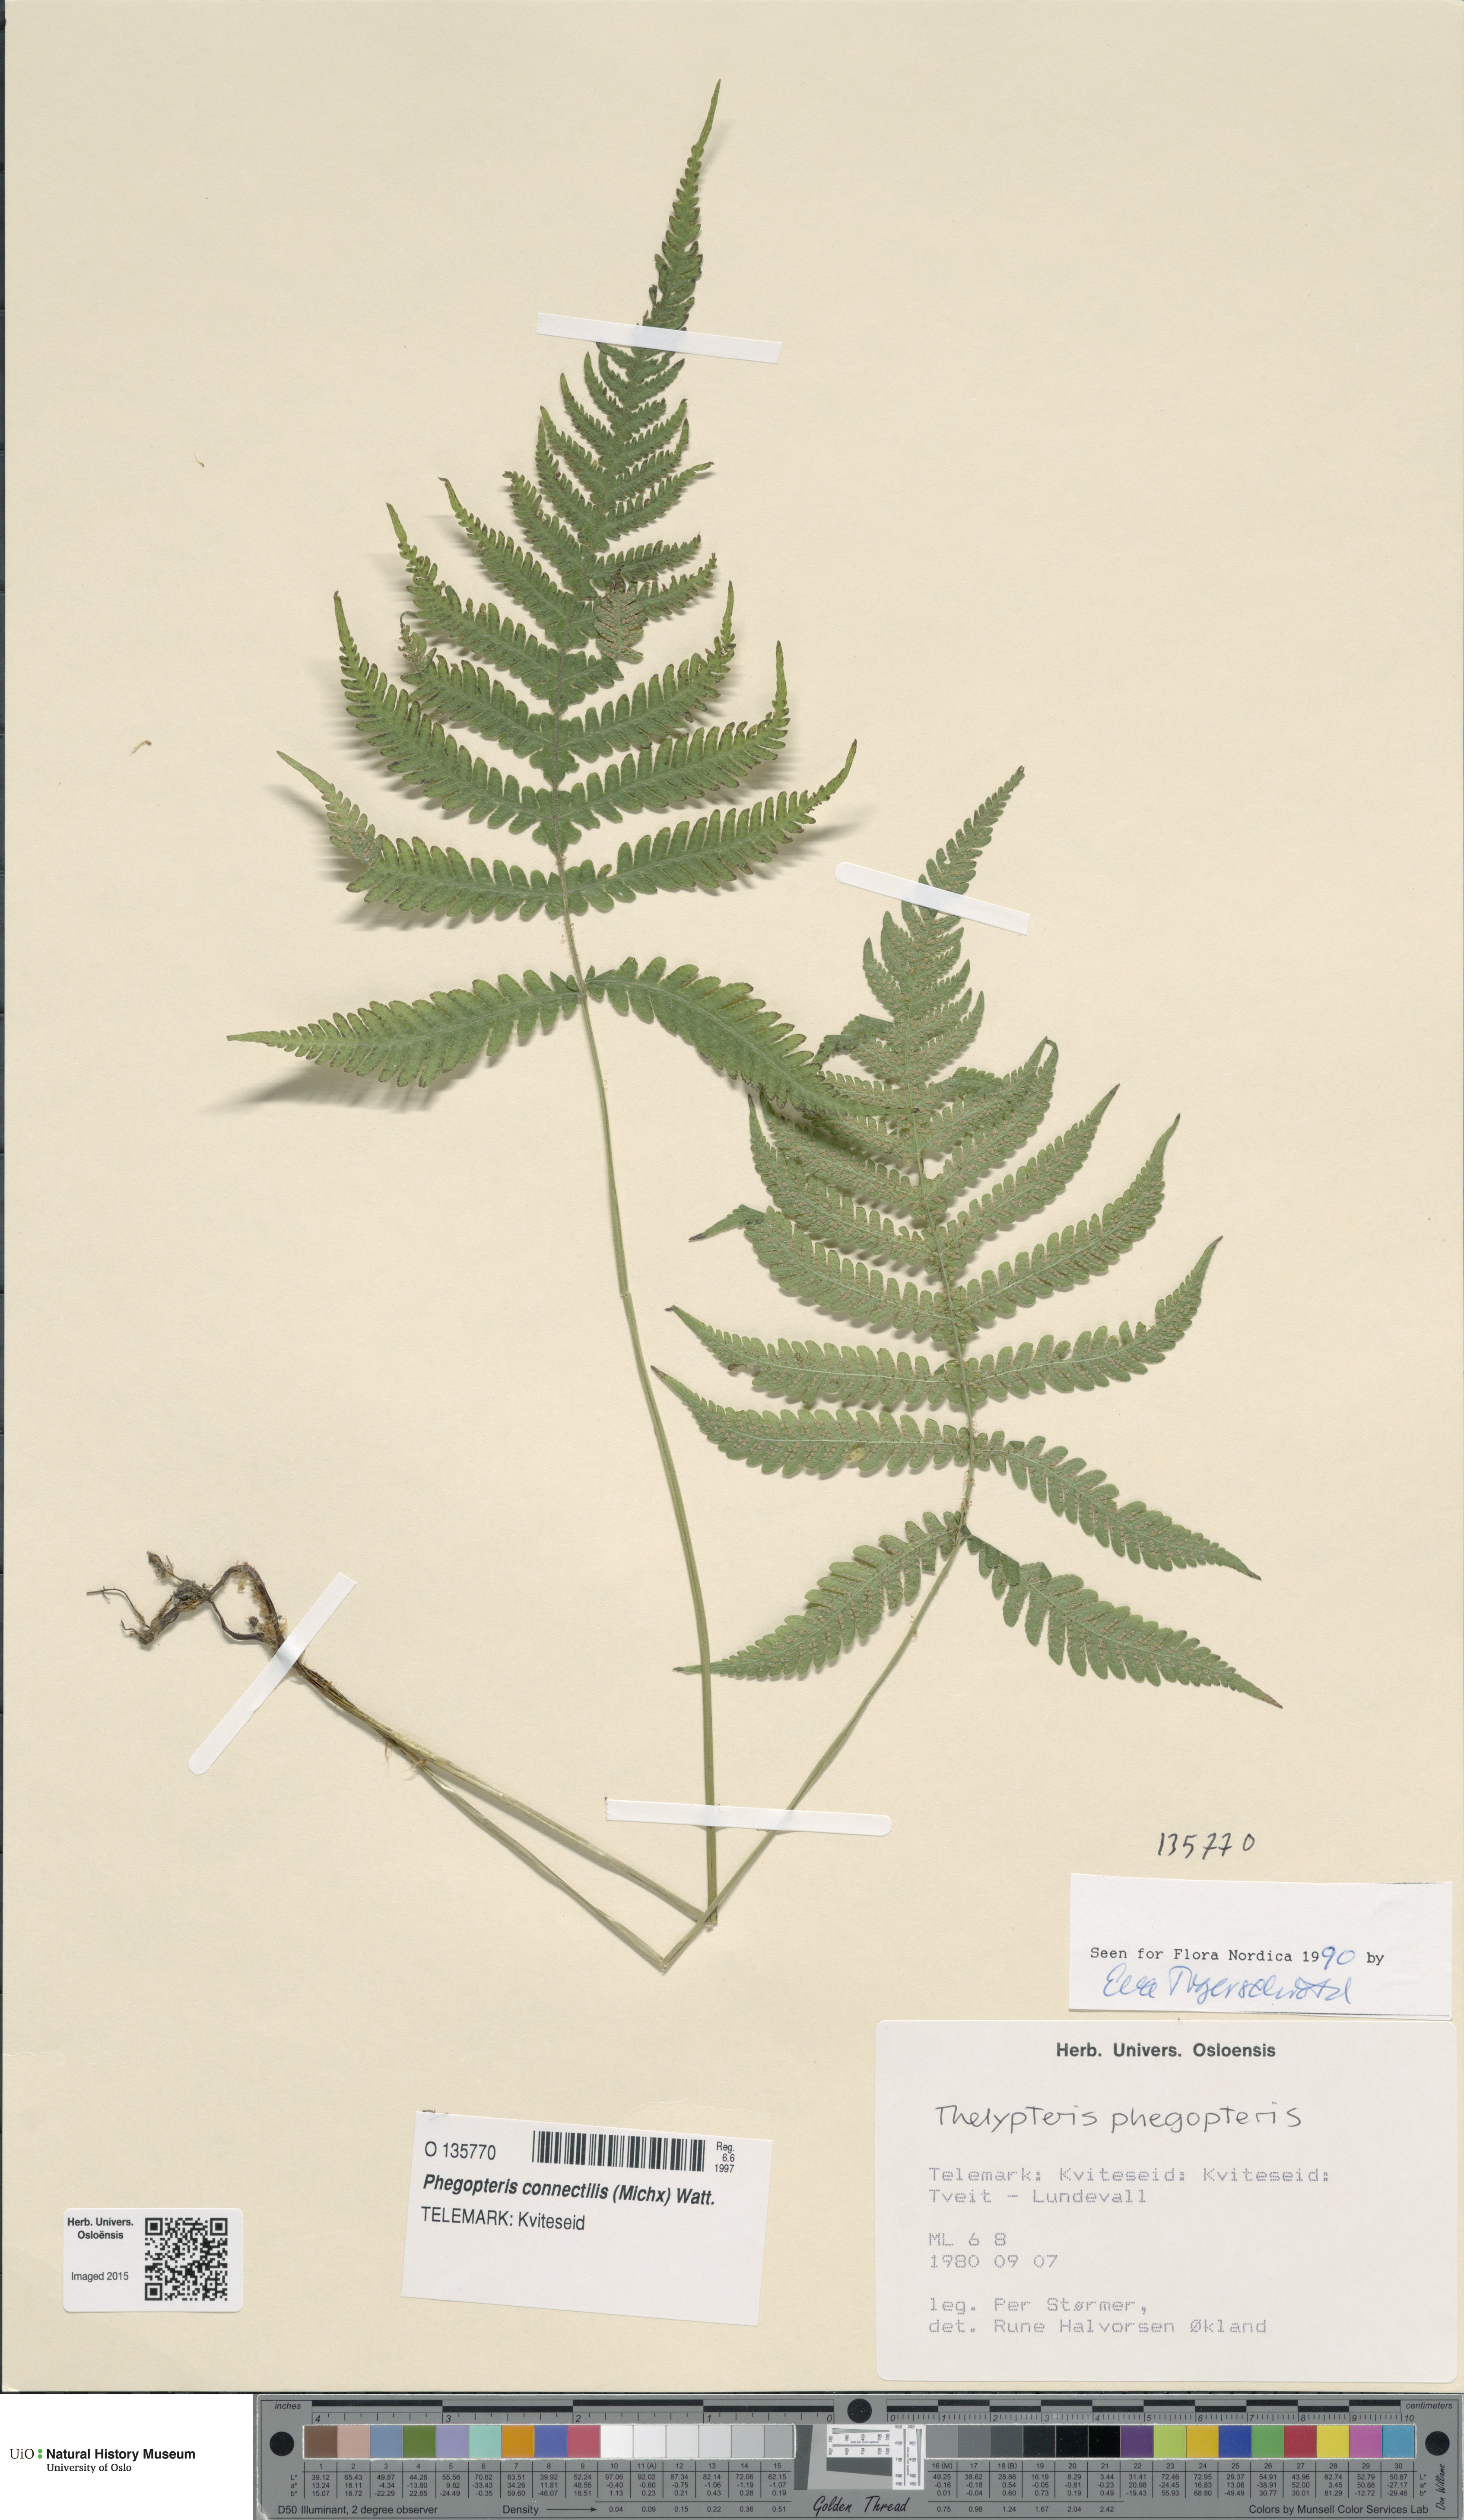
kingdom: Plantae
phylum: Tracheophyta
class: Polypodiopsida
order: Polypodiales
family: Thelypteridaceae
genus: Phegopteris
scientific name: Phegopteris connectilis
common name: Beech fern
